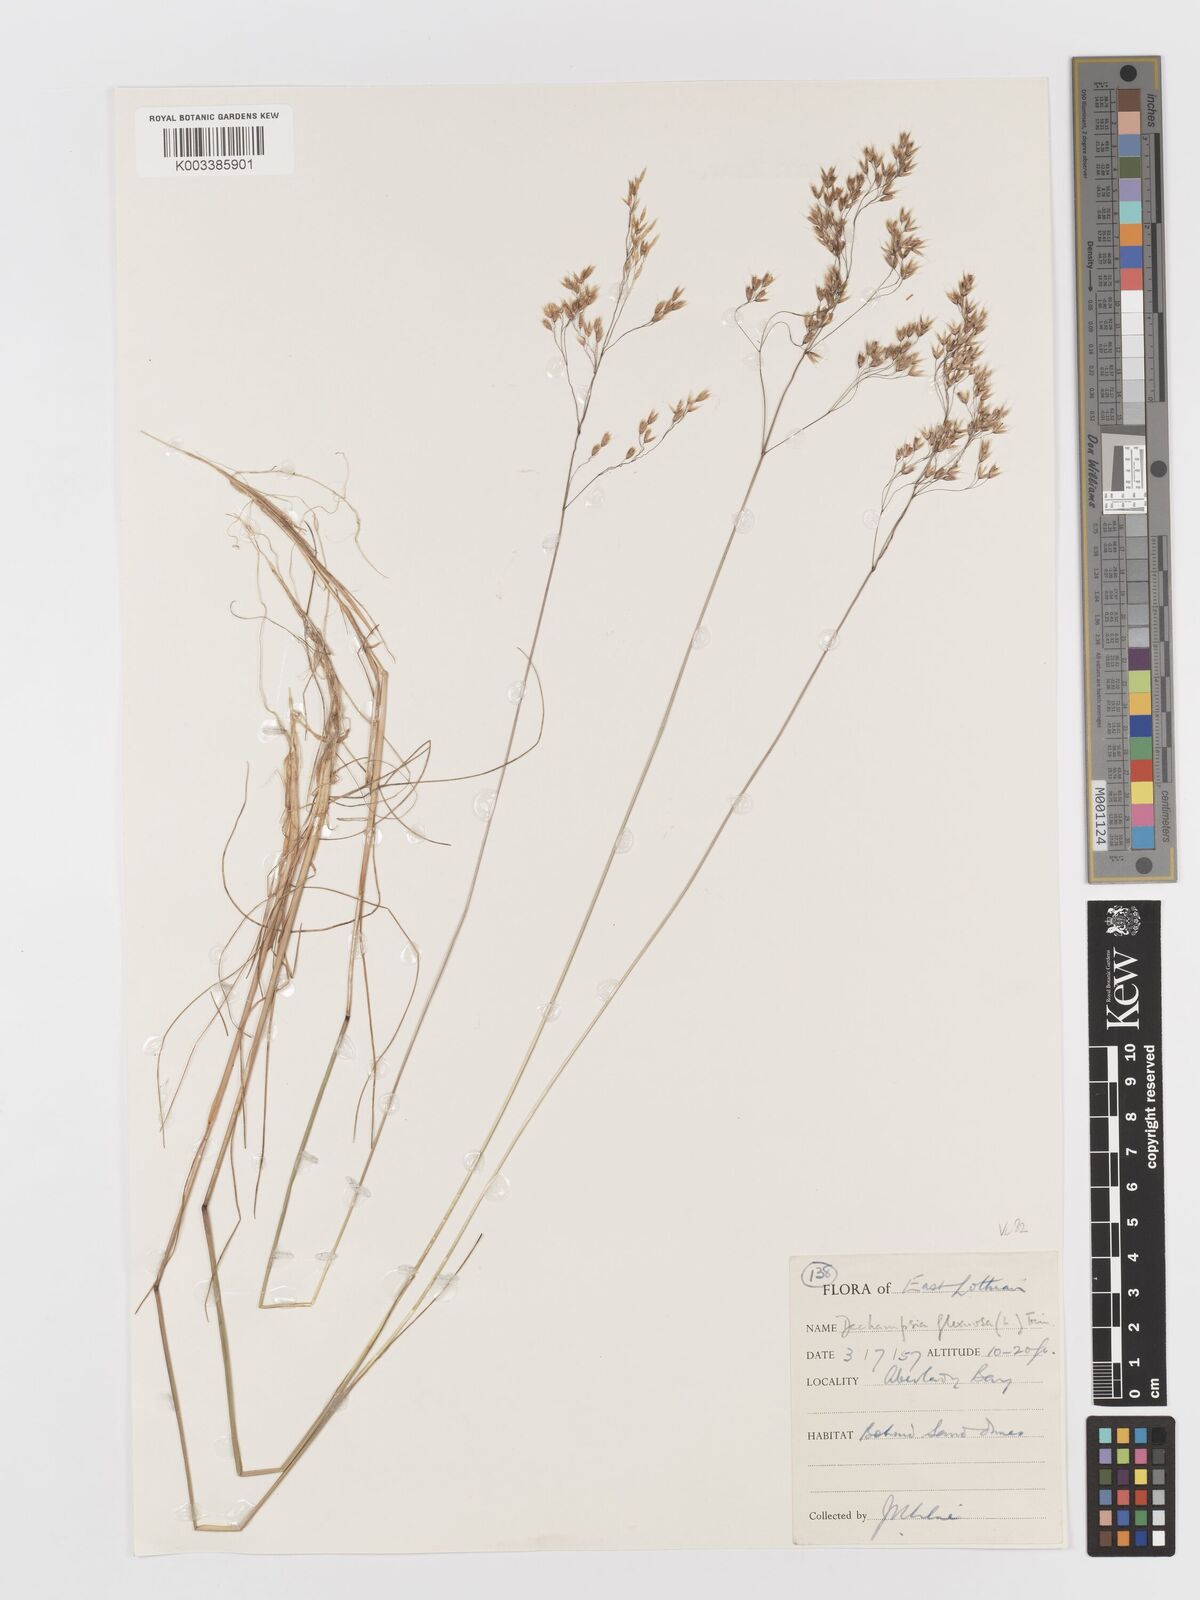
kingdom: Plantae
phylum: Tracheophyta
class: Liliopsida
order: Poales
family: Poaceae
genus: Avenella
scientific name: Avenella flexuosa
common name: Wavy hairgrass
